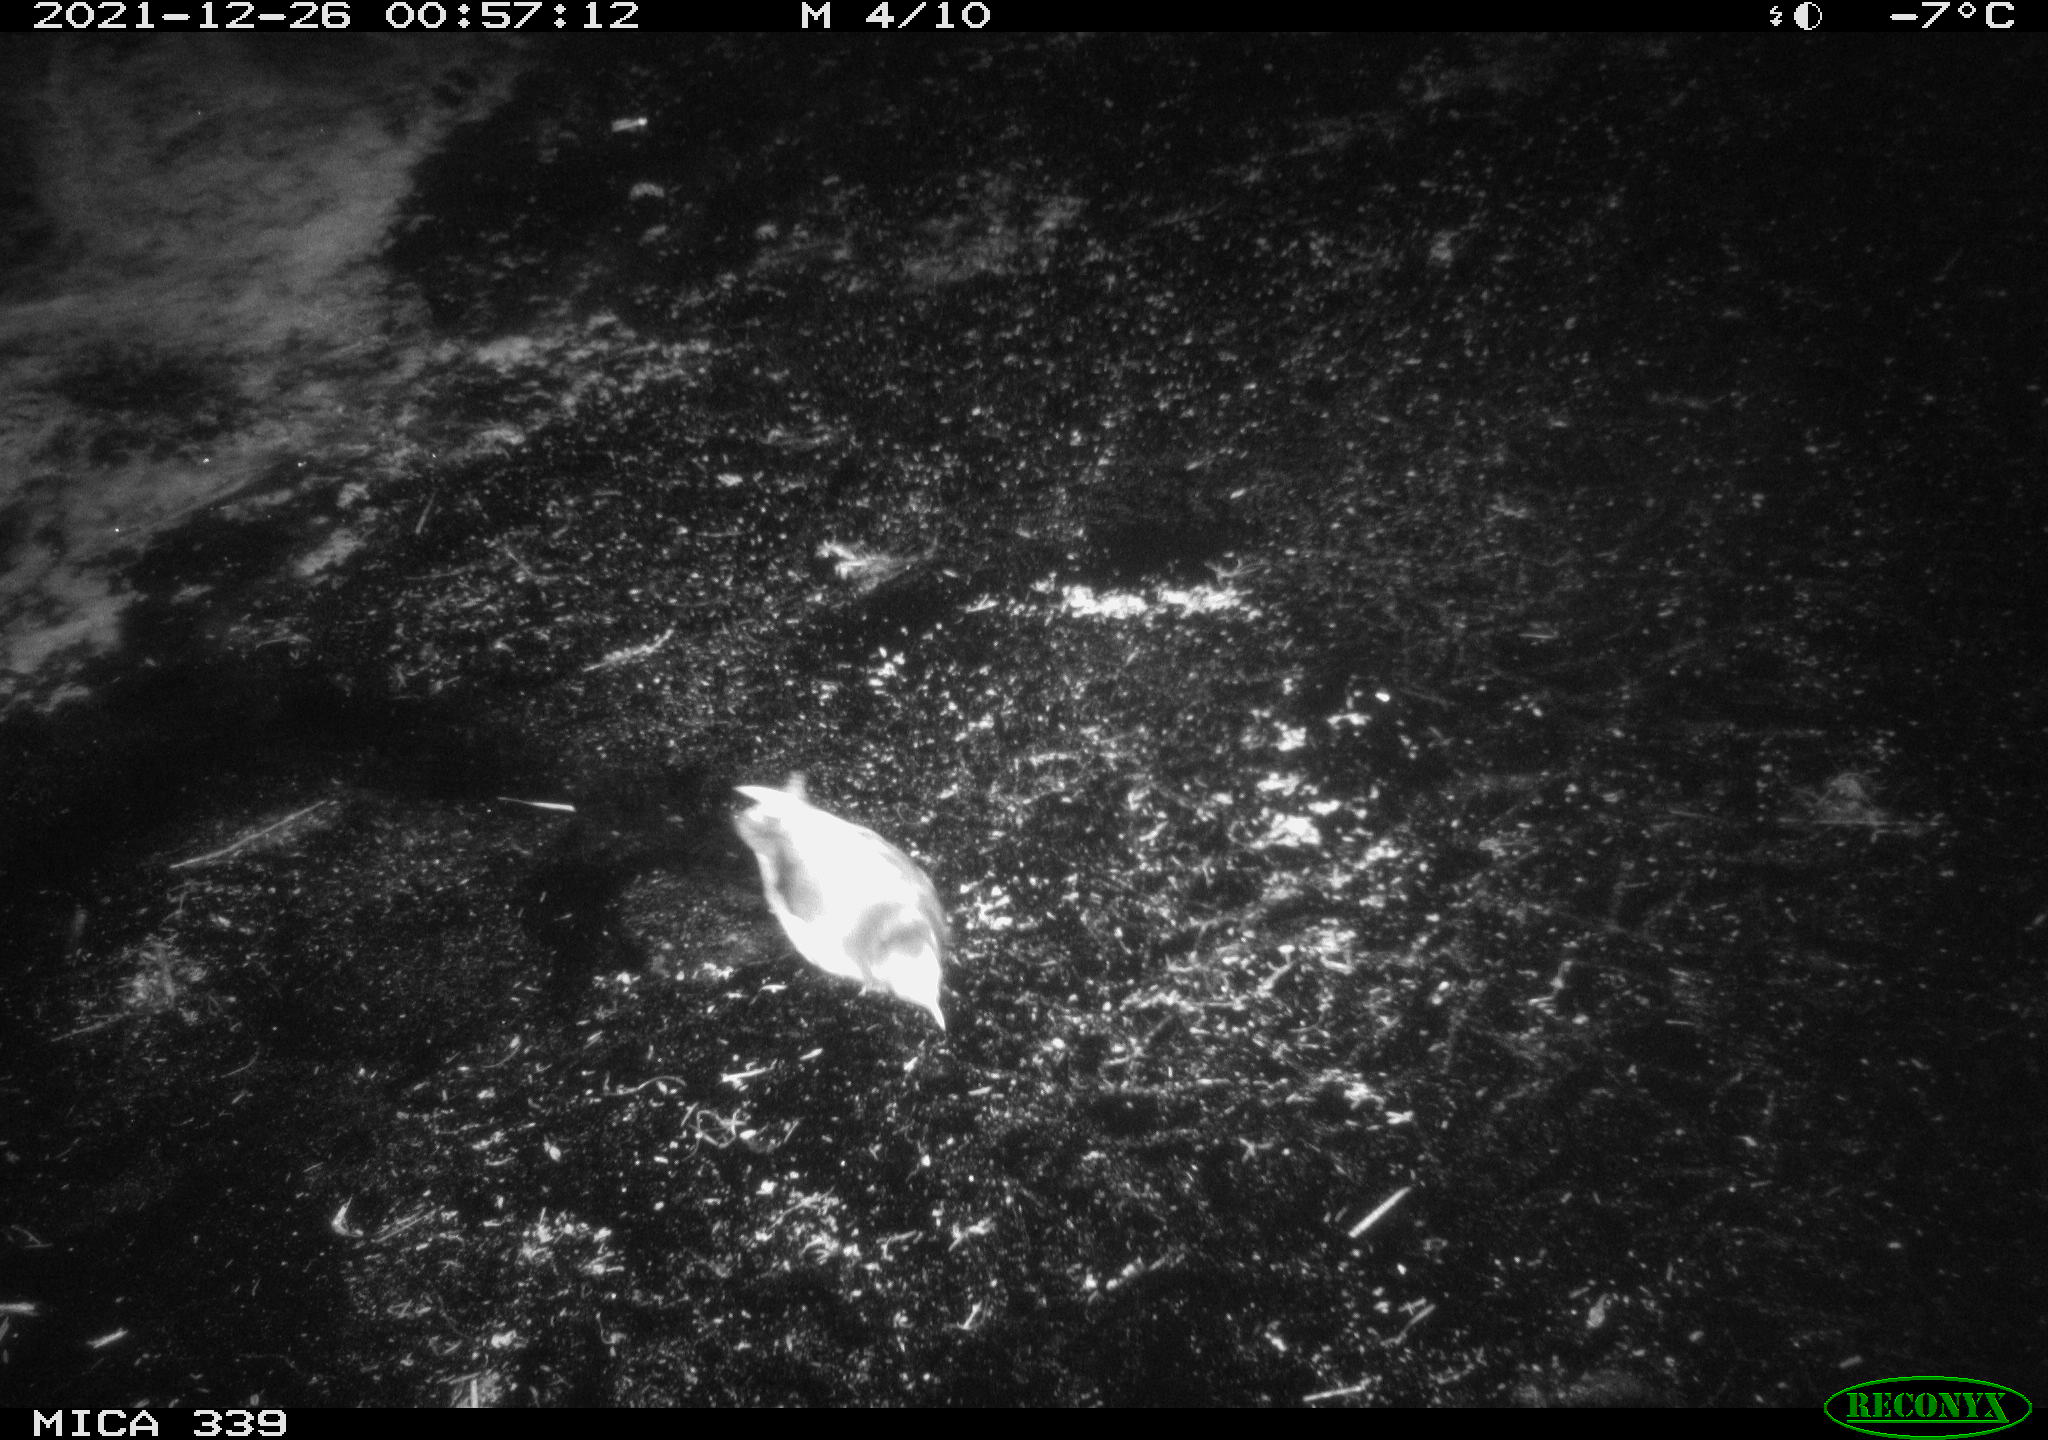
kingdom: Animalia
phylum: Chordata
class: Aves
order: Gruiformes
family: Rallidae
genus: Gallinula
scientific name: Gallinula chloropus
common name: Common moorhen
